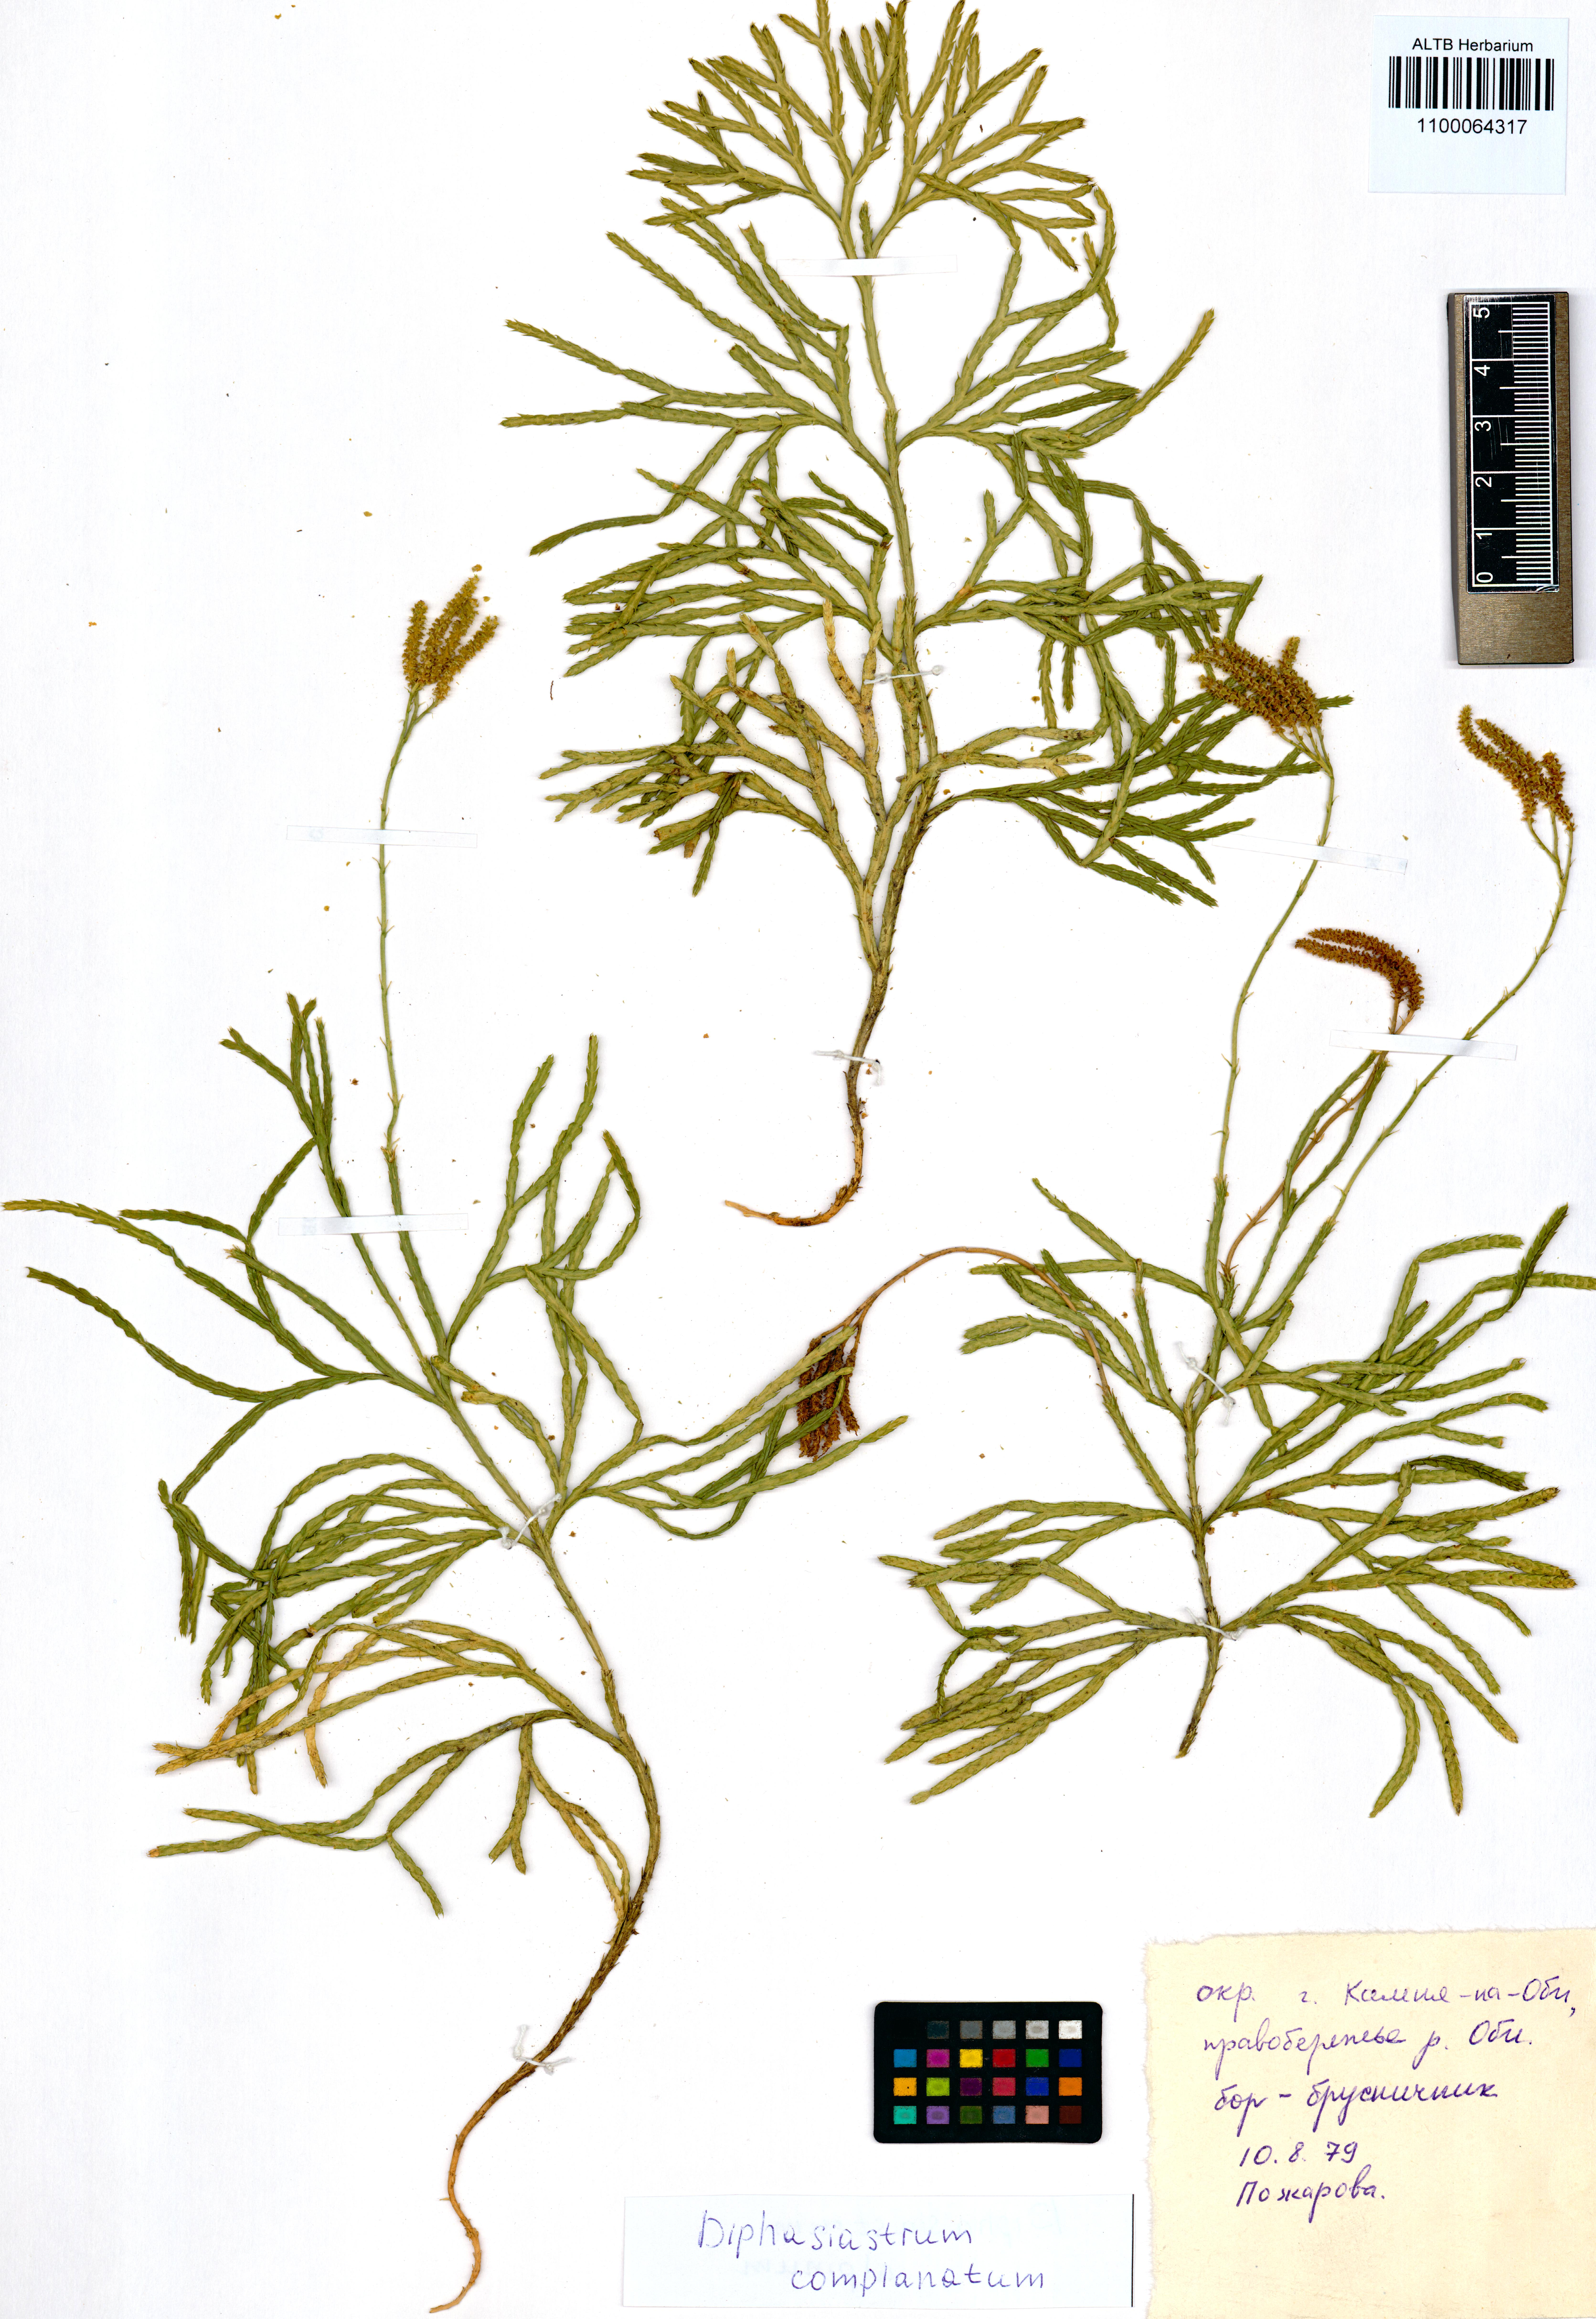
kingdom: Plantae
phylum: Tracheophyta
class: Lycopodiopsida
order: Lycopodiales
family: Lycopodiaceae
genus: Diphasiastrum
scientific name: Diphasiastrum complanatum
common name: Northern running-pine
